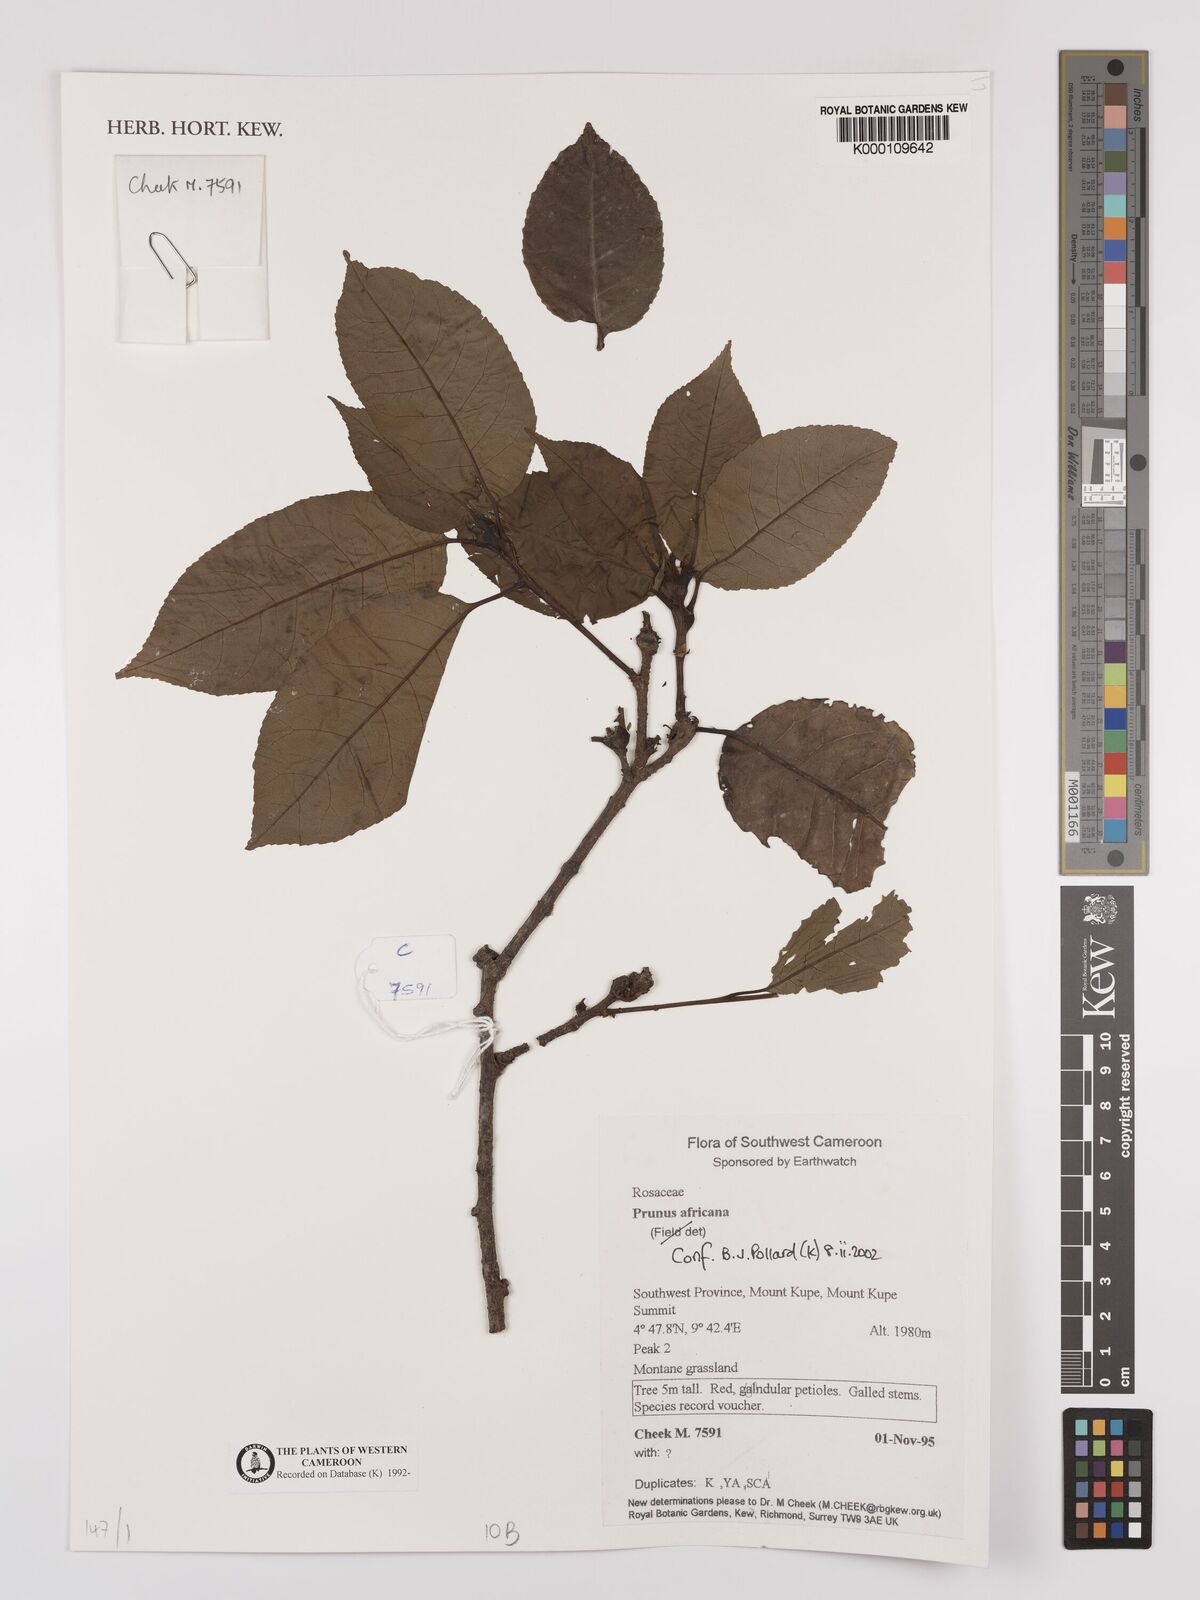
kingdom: Plantae
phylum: Tracheophyta
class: Magnoliopsida
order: Rosales
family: Rosaceae
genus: Prunus
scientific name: Prunus africana
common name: African cherry
